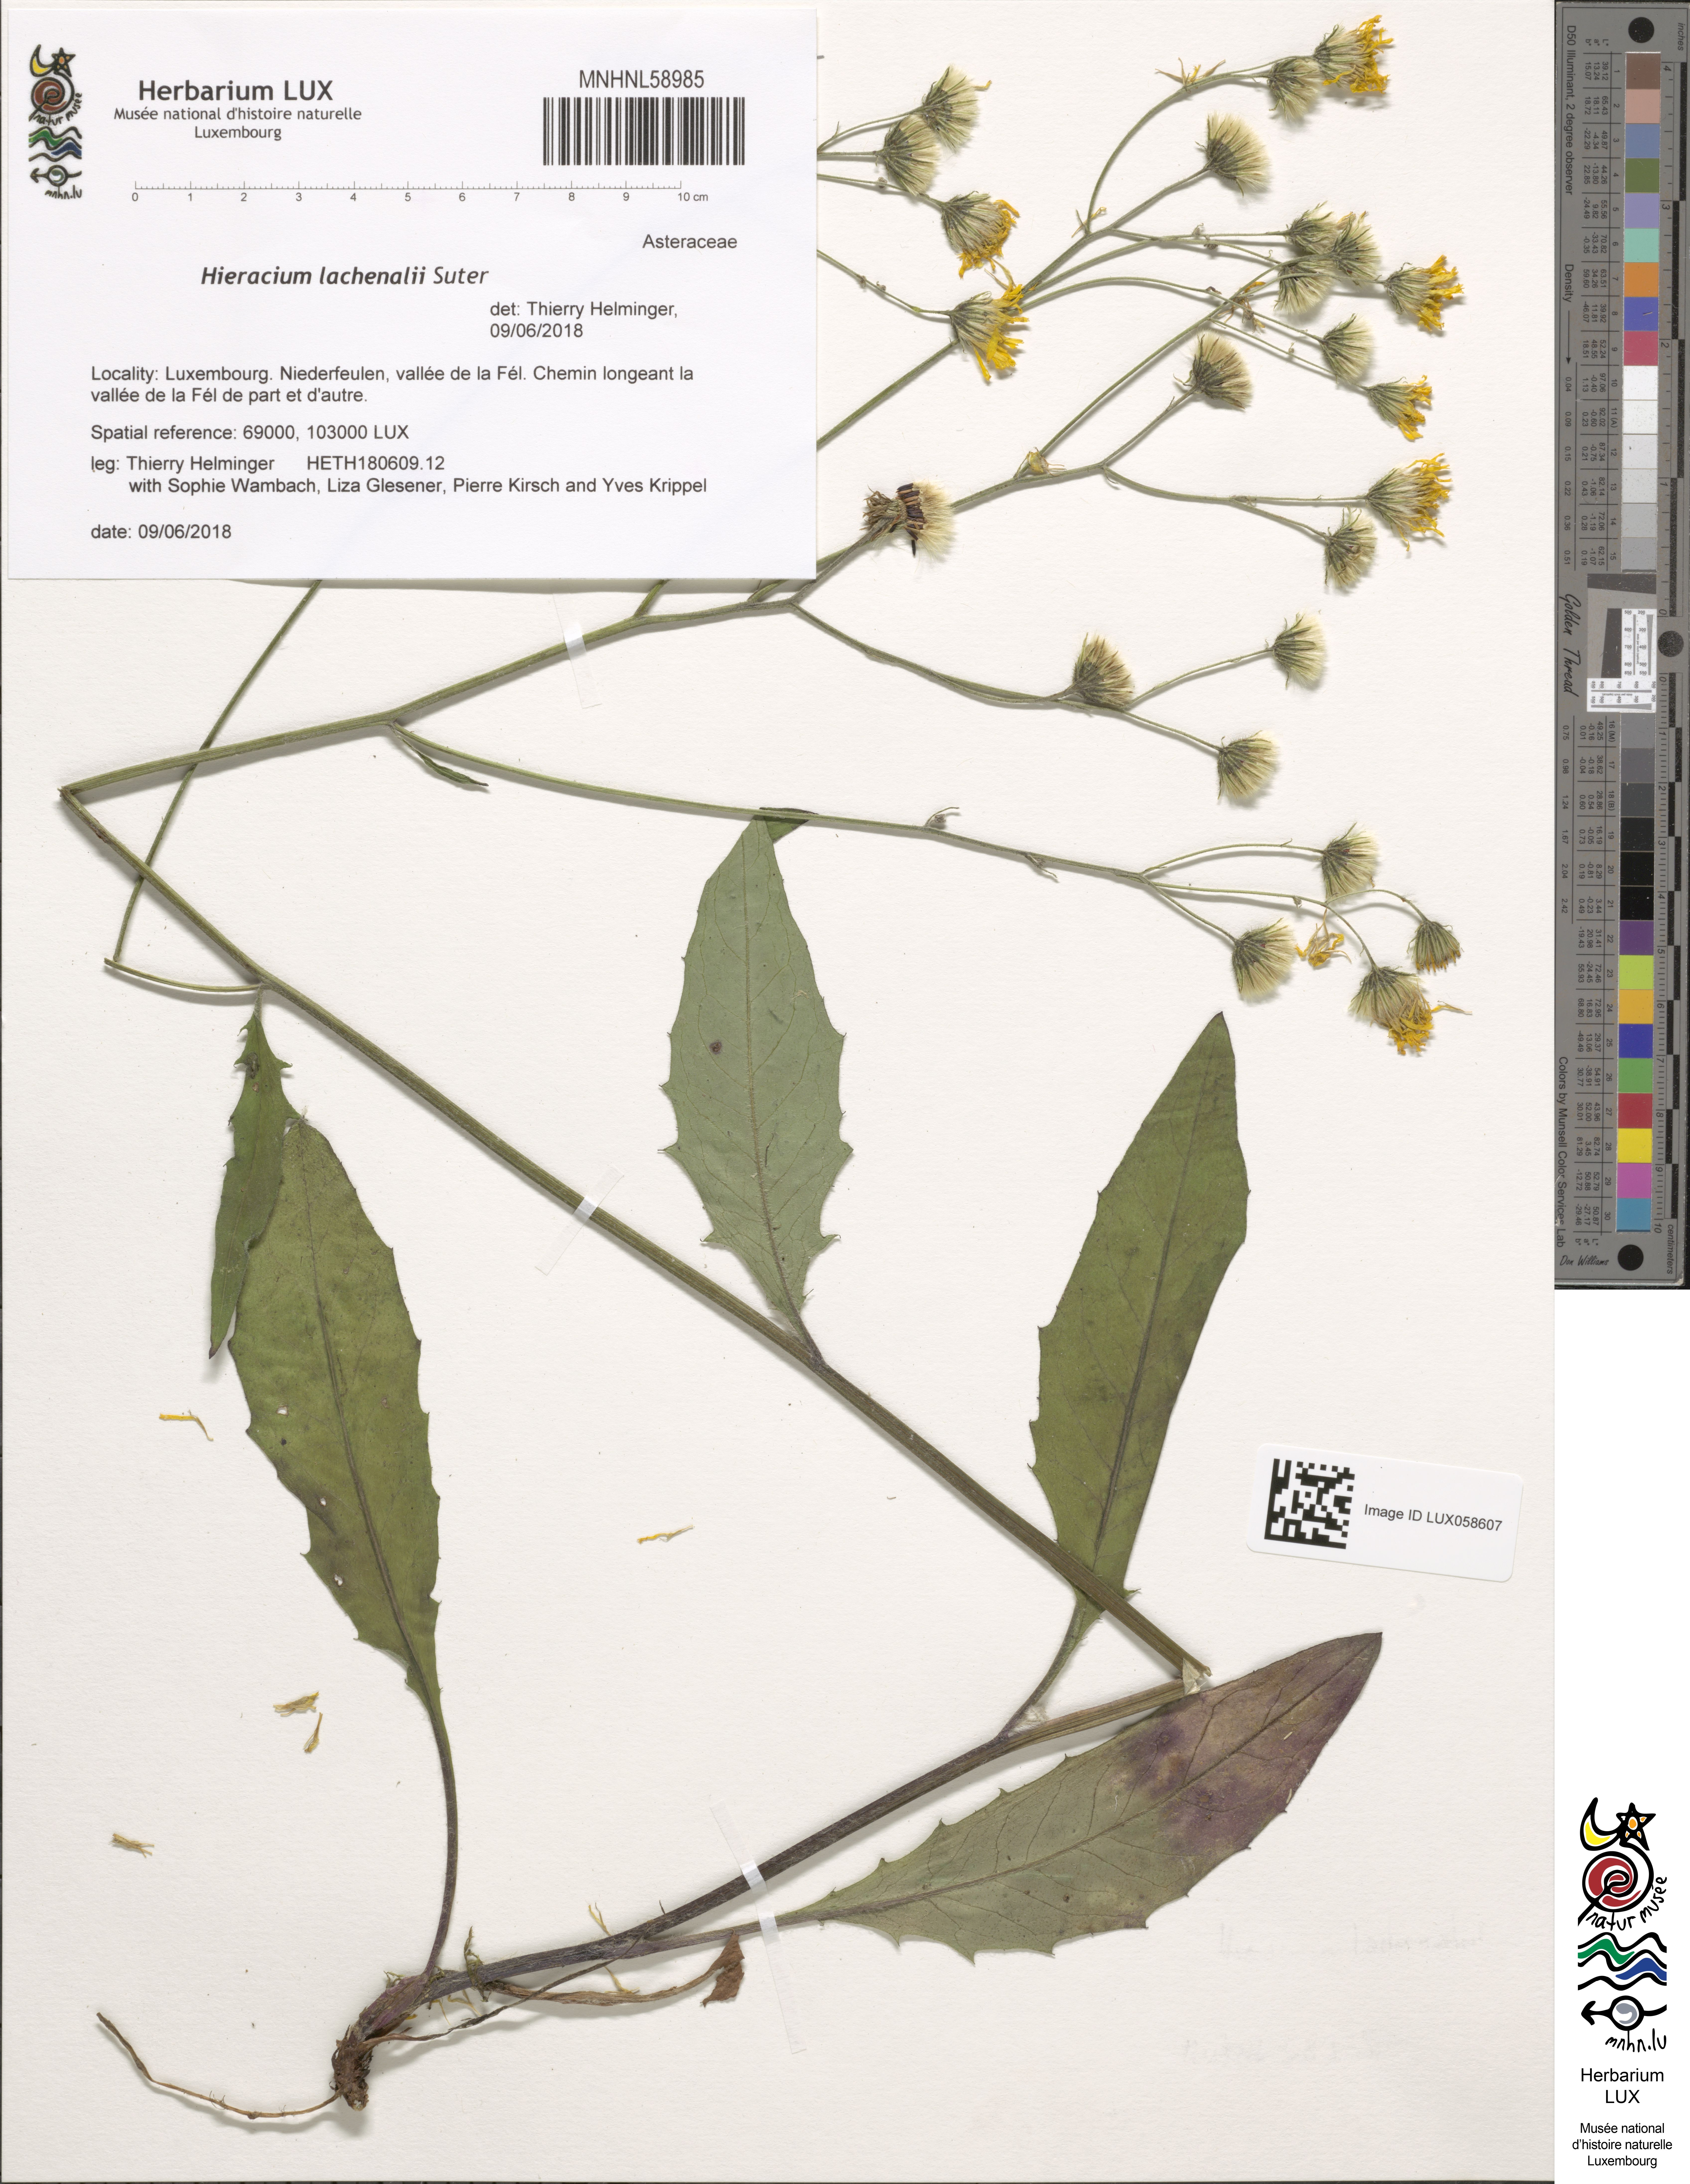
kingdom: Plantae
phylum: Tracheophyta
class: Magnoliopsida
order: Asterales
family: Asteraceae
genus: Hieracium
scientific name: Hieracium lachenalii
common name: Common hawkweed
